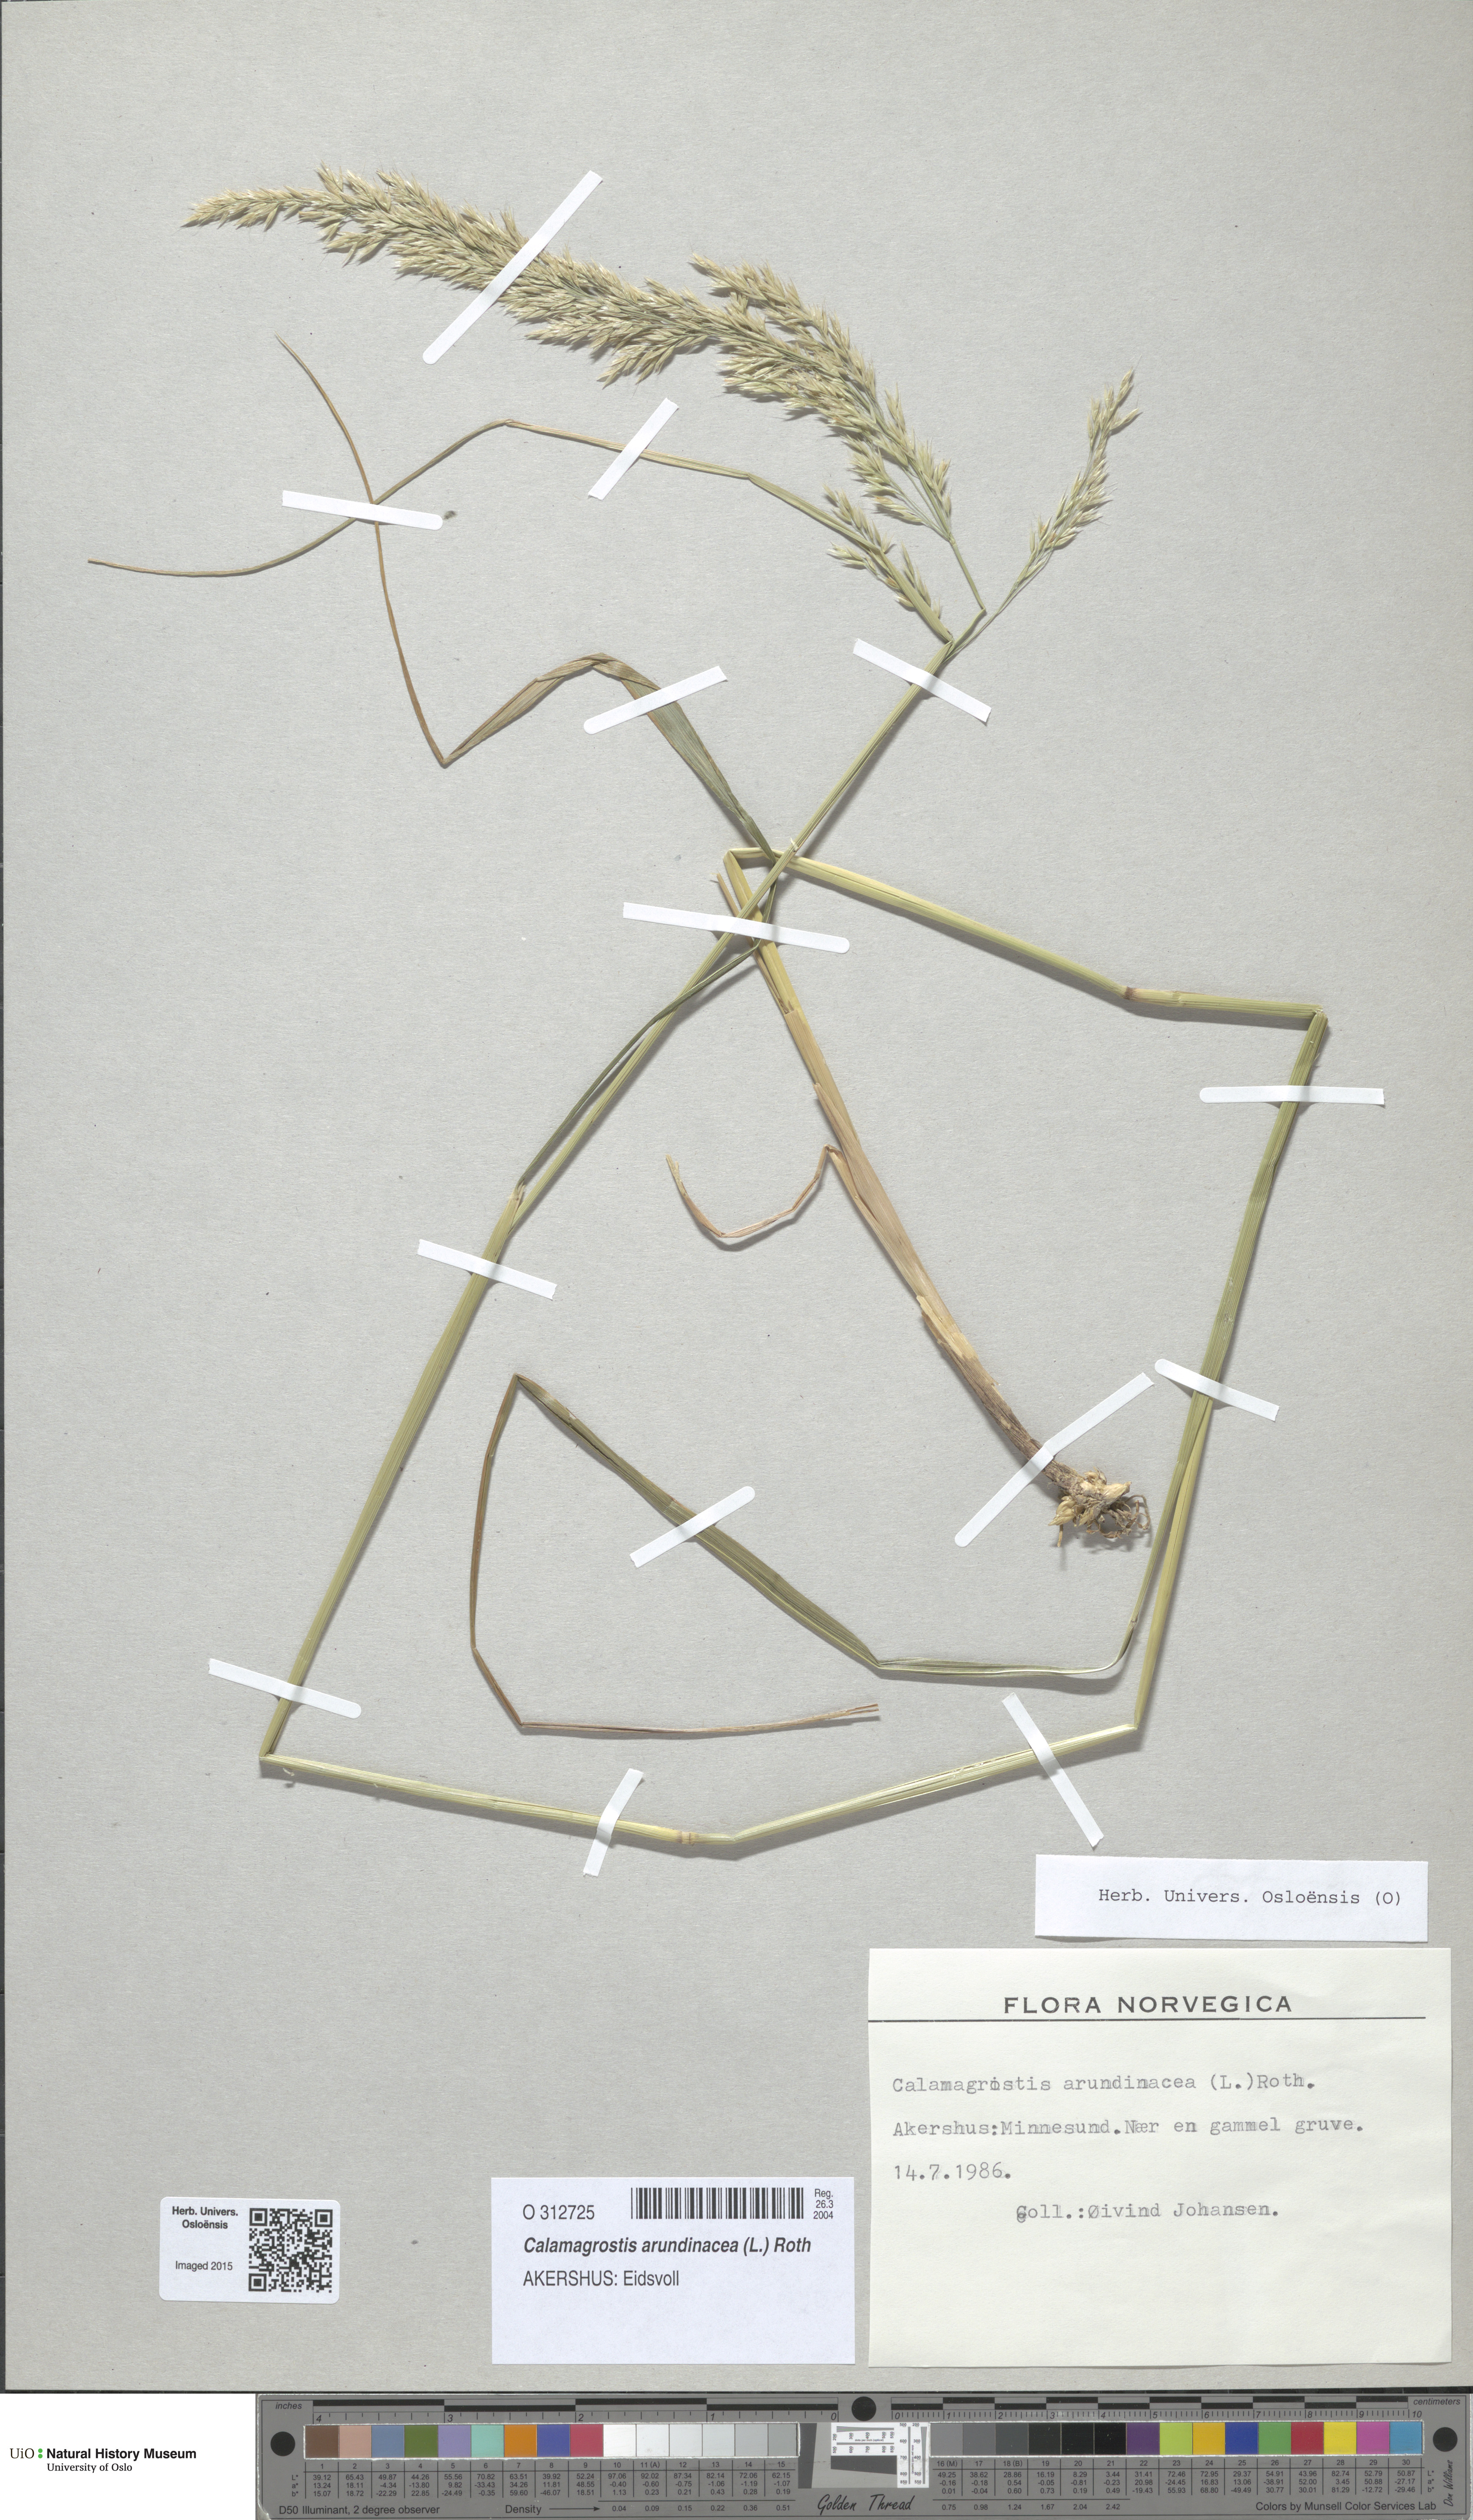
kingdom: Plantae
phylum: Tracheophyta
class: Liliopsida
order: Poales
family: Poaceae
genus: Calamagrostis
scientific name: Calamagrostis arundinacea
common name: Metskastik
